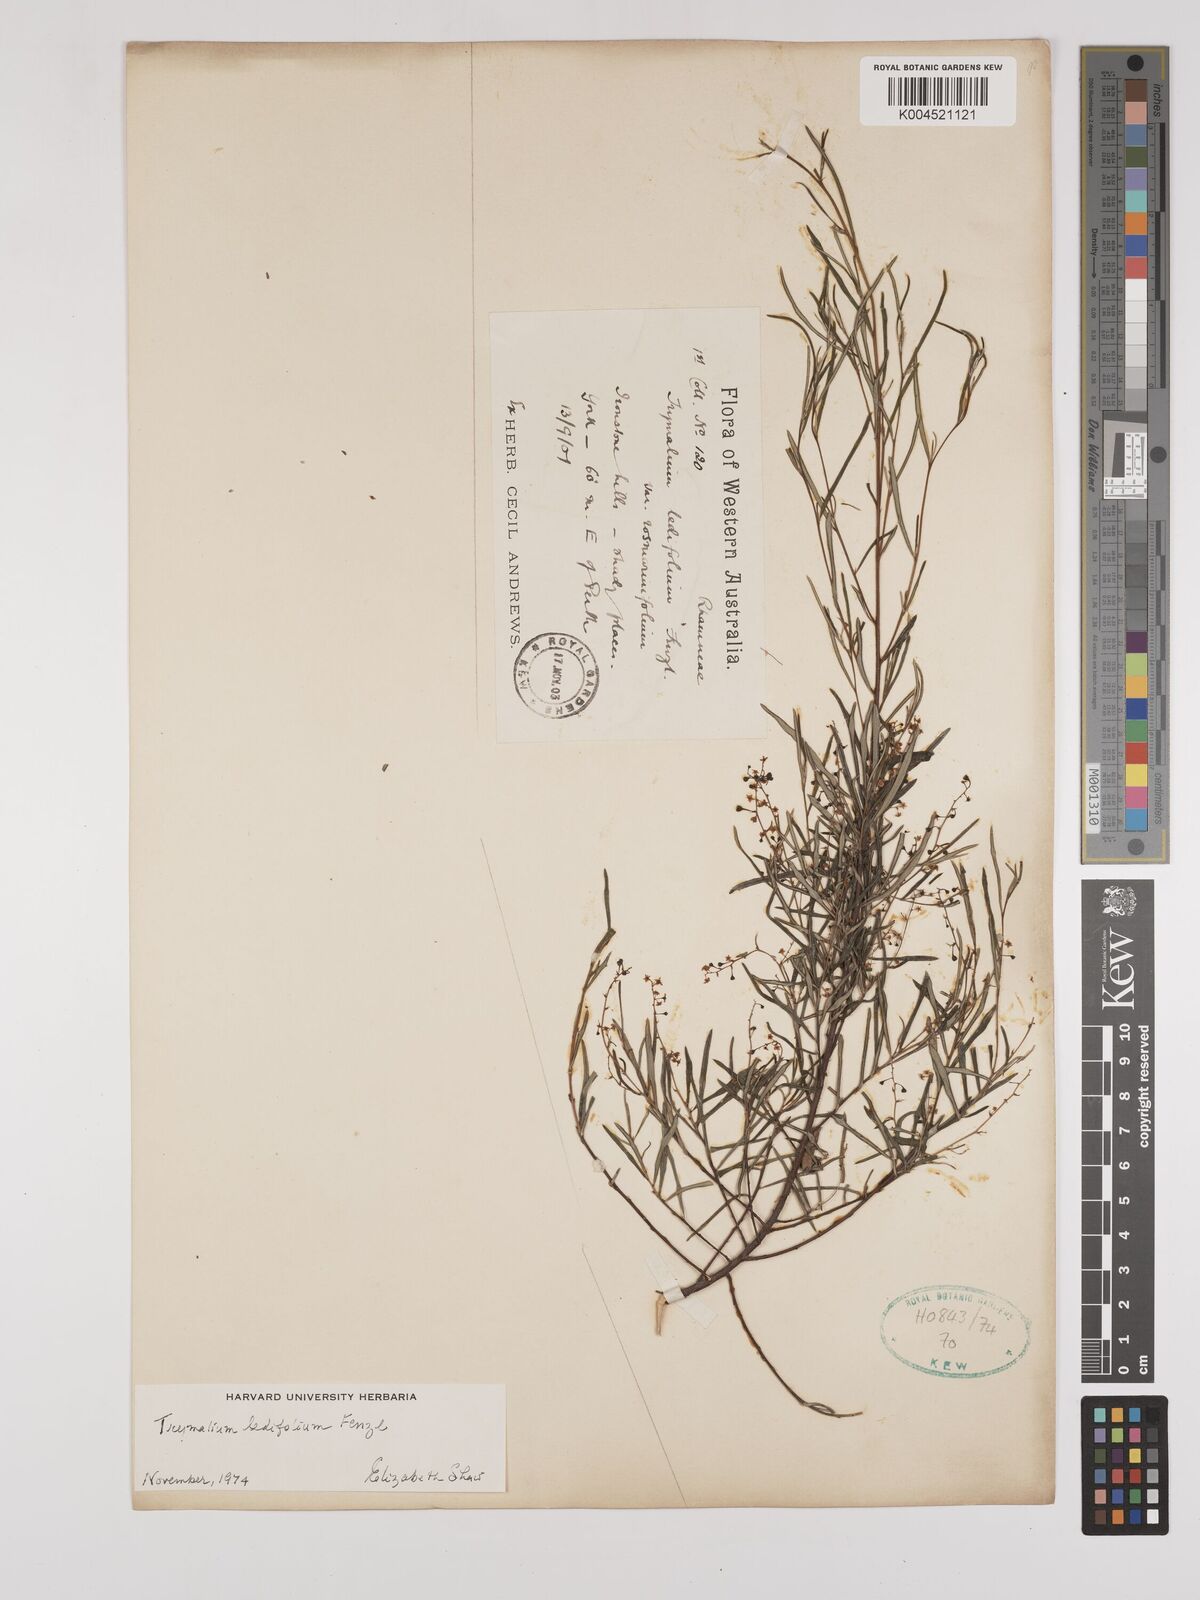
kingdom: Plantae
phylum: Tracheophyta
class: Magnoliopsida
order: Rosales
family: Rhamnaceae
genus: Trymalium
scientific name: Trymalium ledifolium
